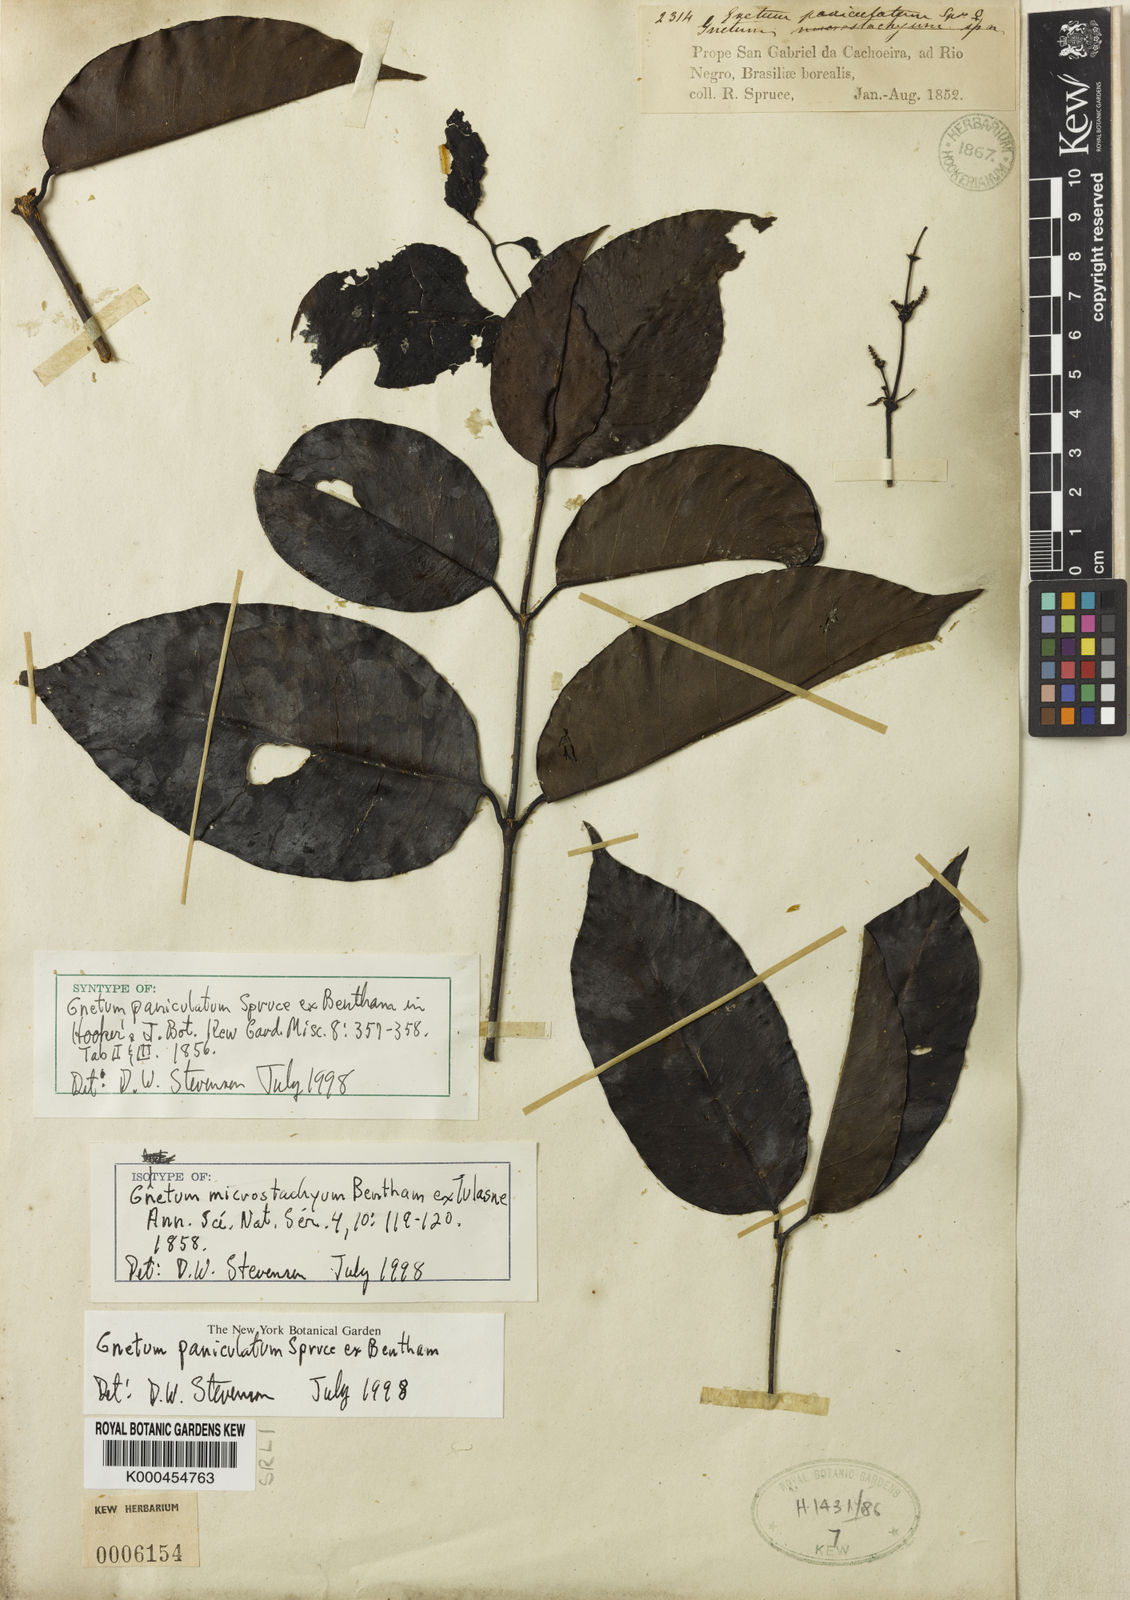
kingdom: Plantae
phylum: Tracheophyta
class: Gnetopsida
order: Gnetales
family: Gnetaceae
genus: Gnetum
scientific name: Gnetum paniculatum
